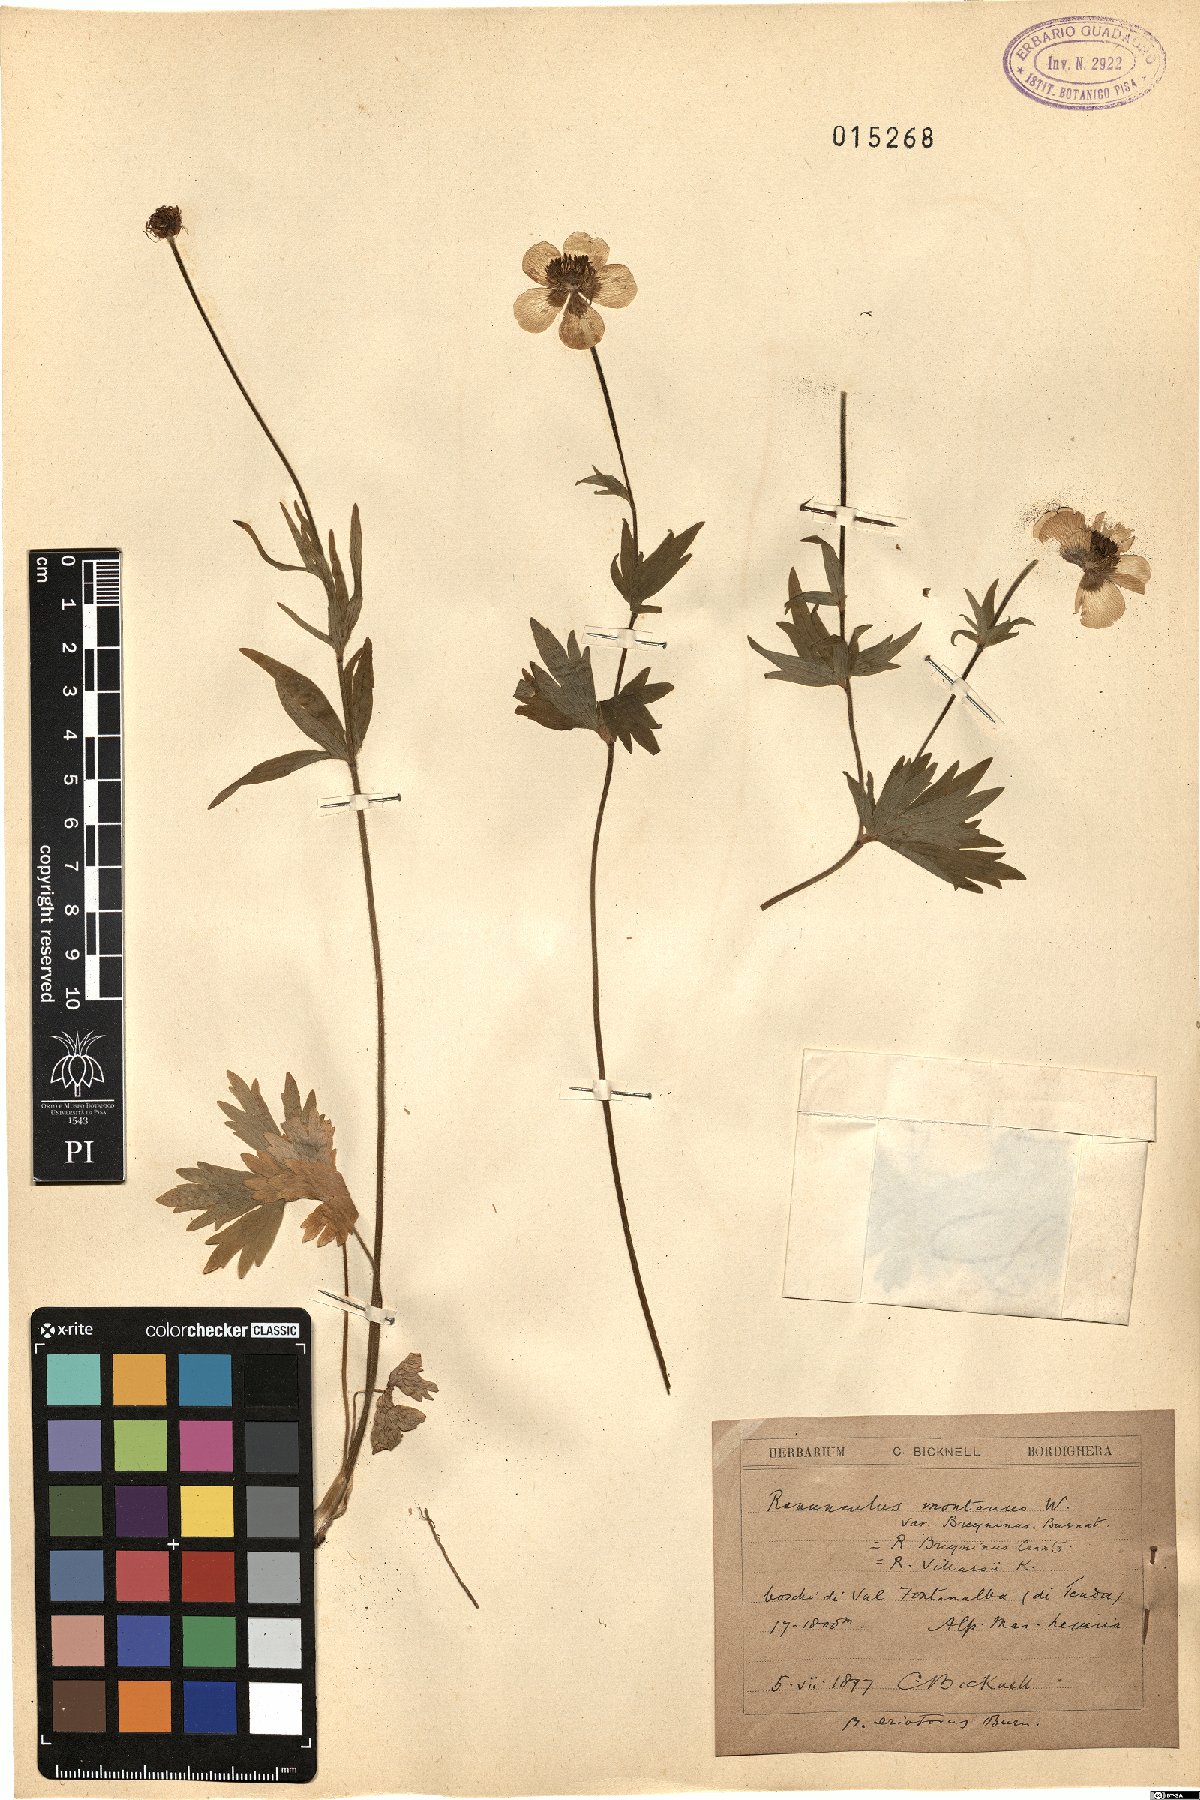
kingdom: Plantae
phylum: Tracheophyta
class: Magnoliopsida
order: Ranunculales
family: Ranunculaceae
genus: Ranunculus
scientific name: Ranunculus villarsii
